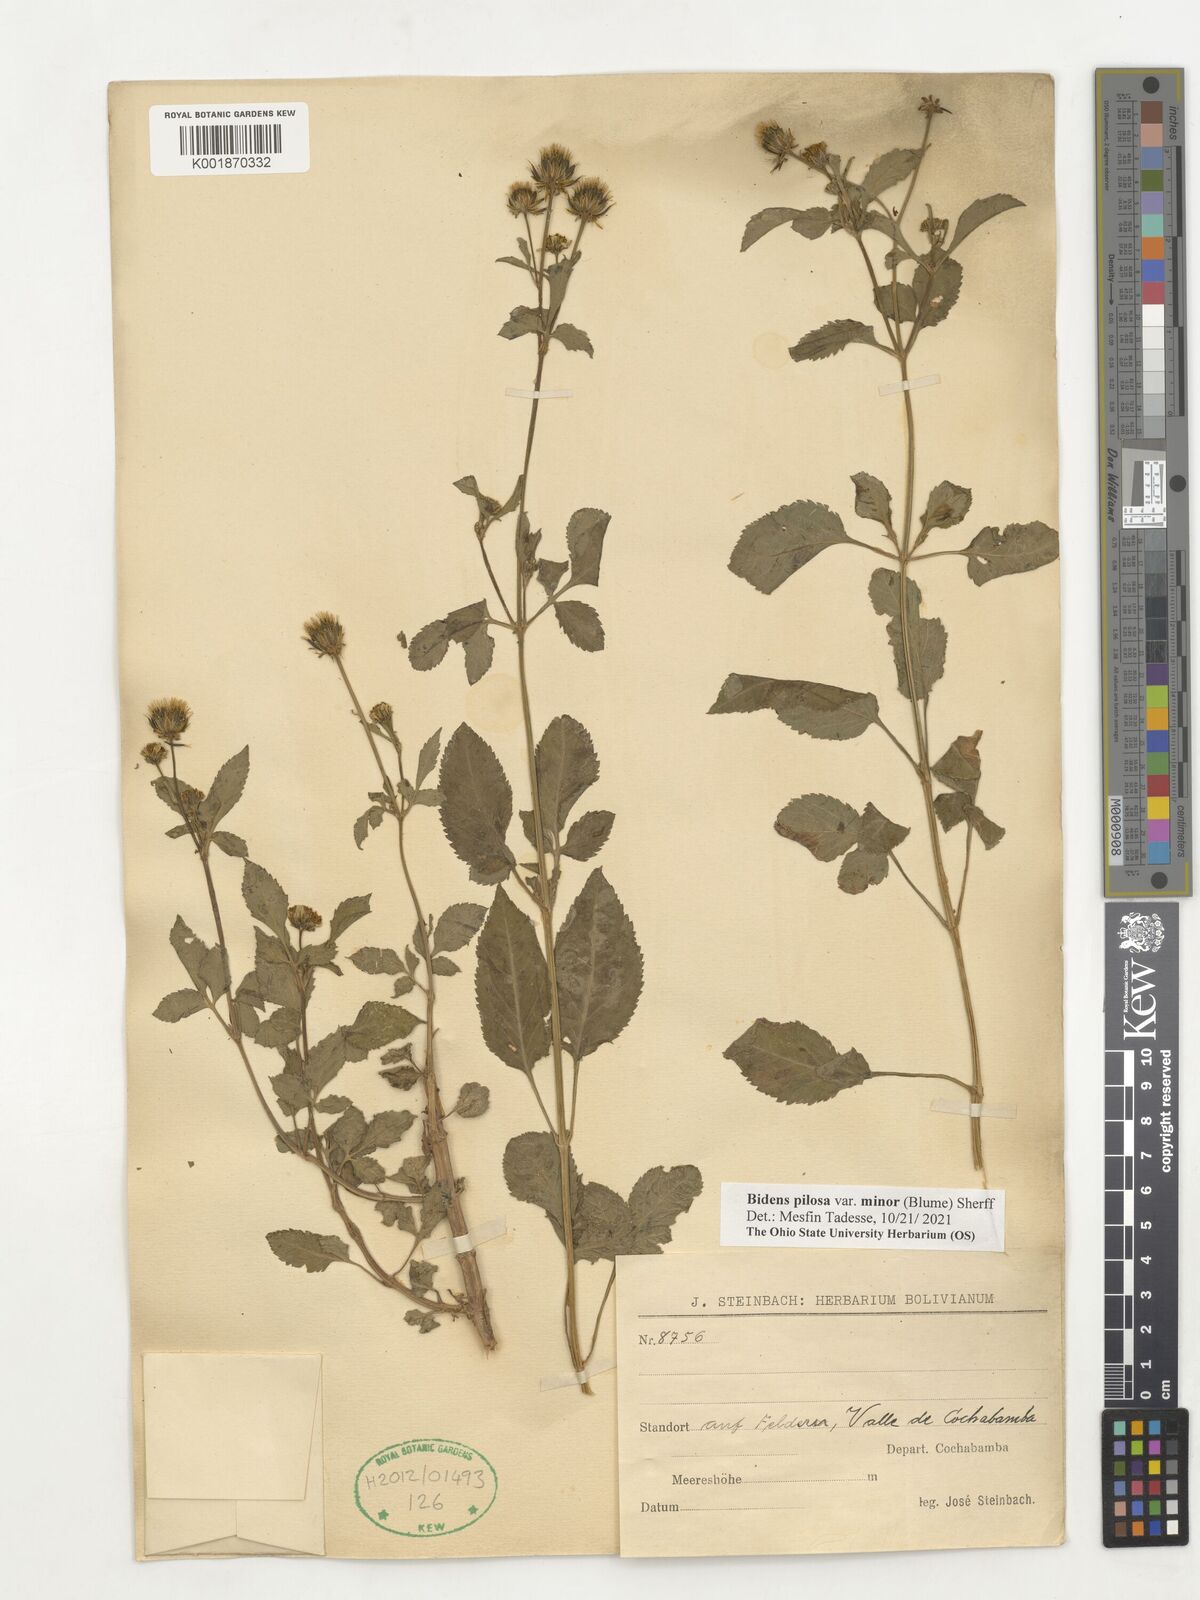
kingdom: Plantae
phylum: Tracheophyta
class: Magnoliopsida
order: Asterales
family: Asteraceae
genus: Bidens
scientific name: Bidens pilosa
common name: Black-jack
